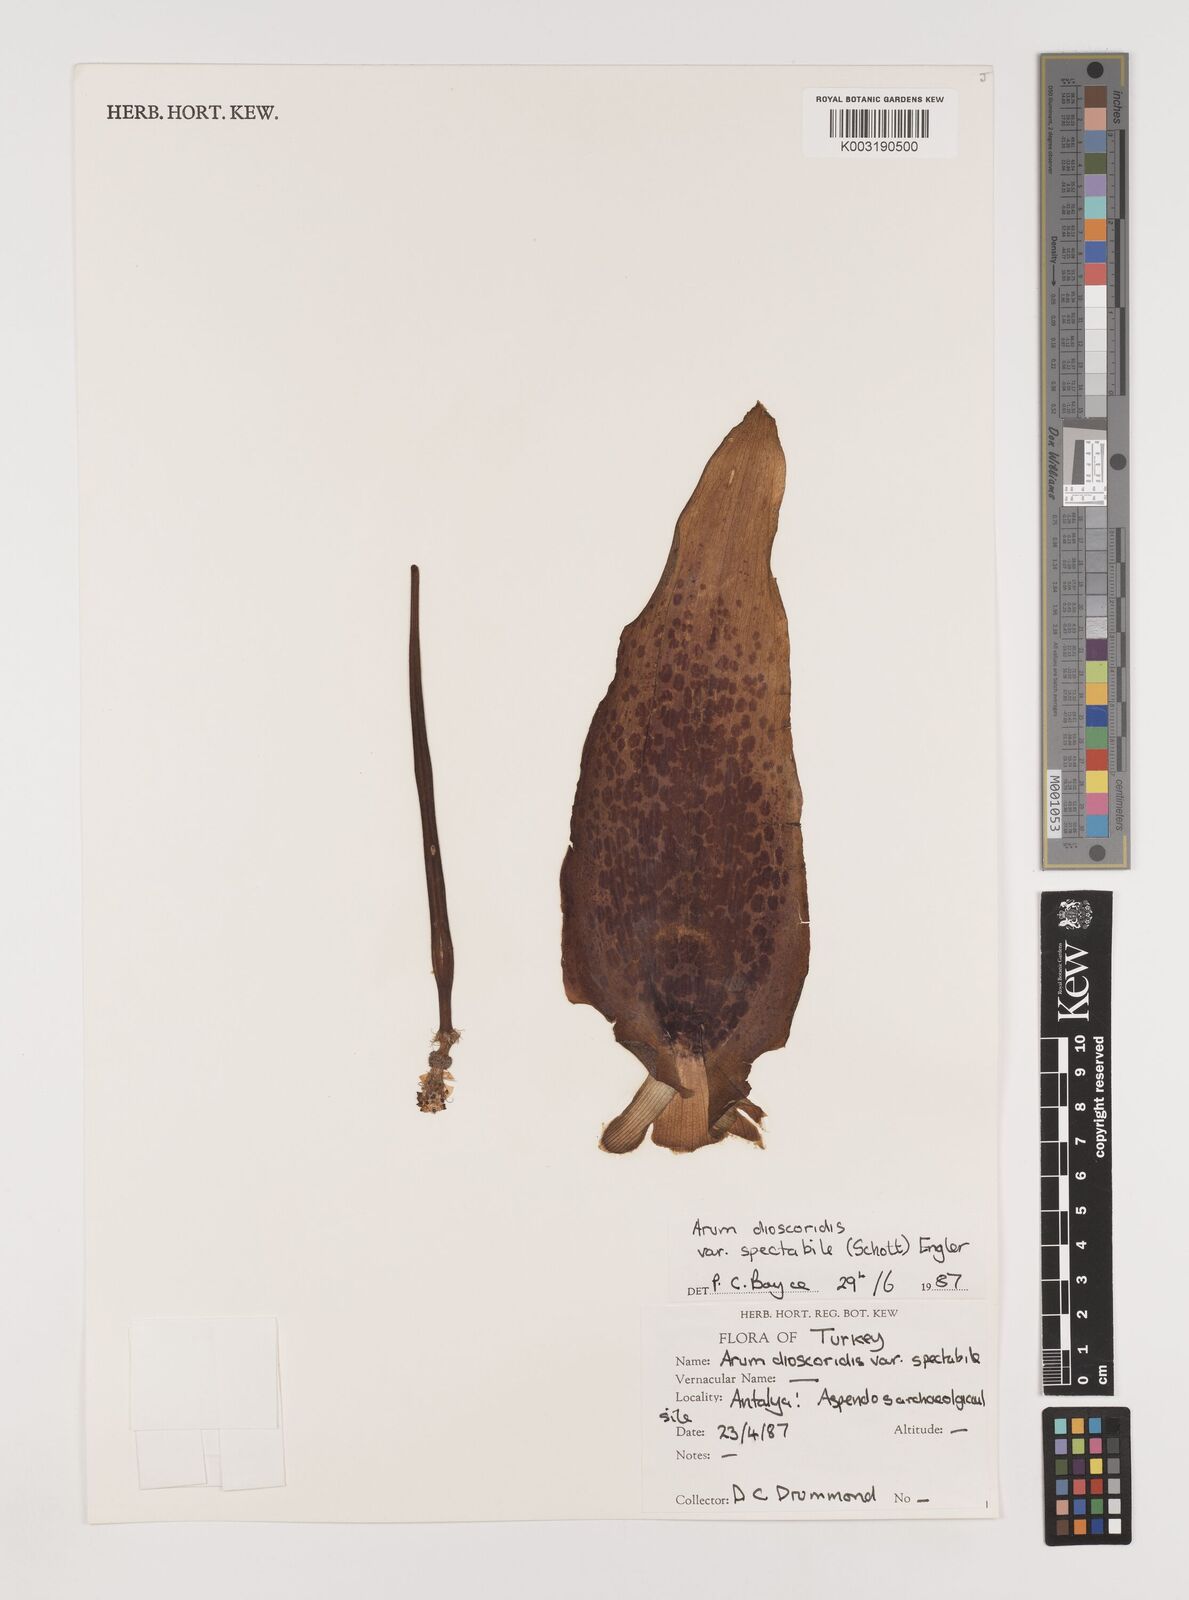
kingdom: Plantae
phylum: Tracheophyta
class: Liliopsida
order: Alismatales
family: Araceae
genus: Arum
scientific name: Arum dioscoridis
